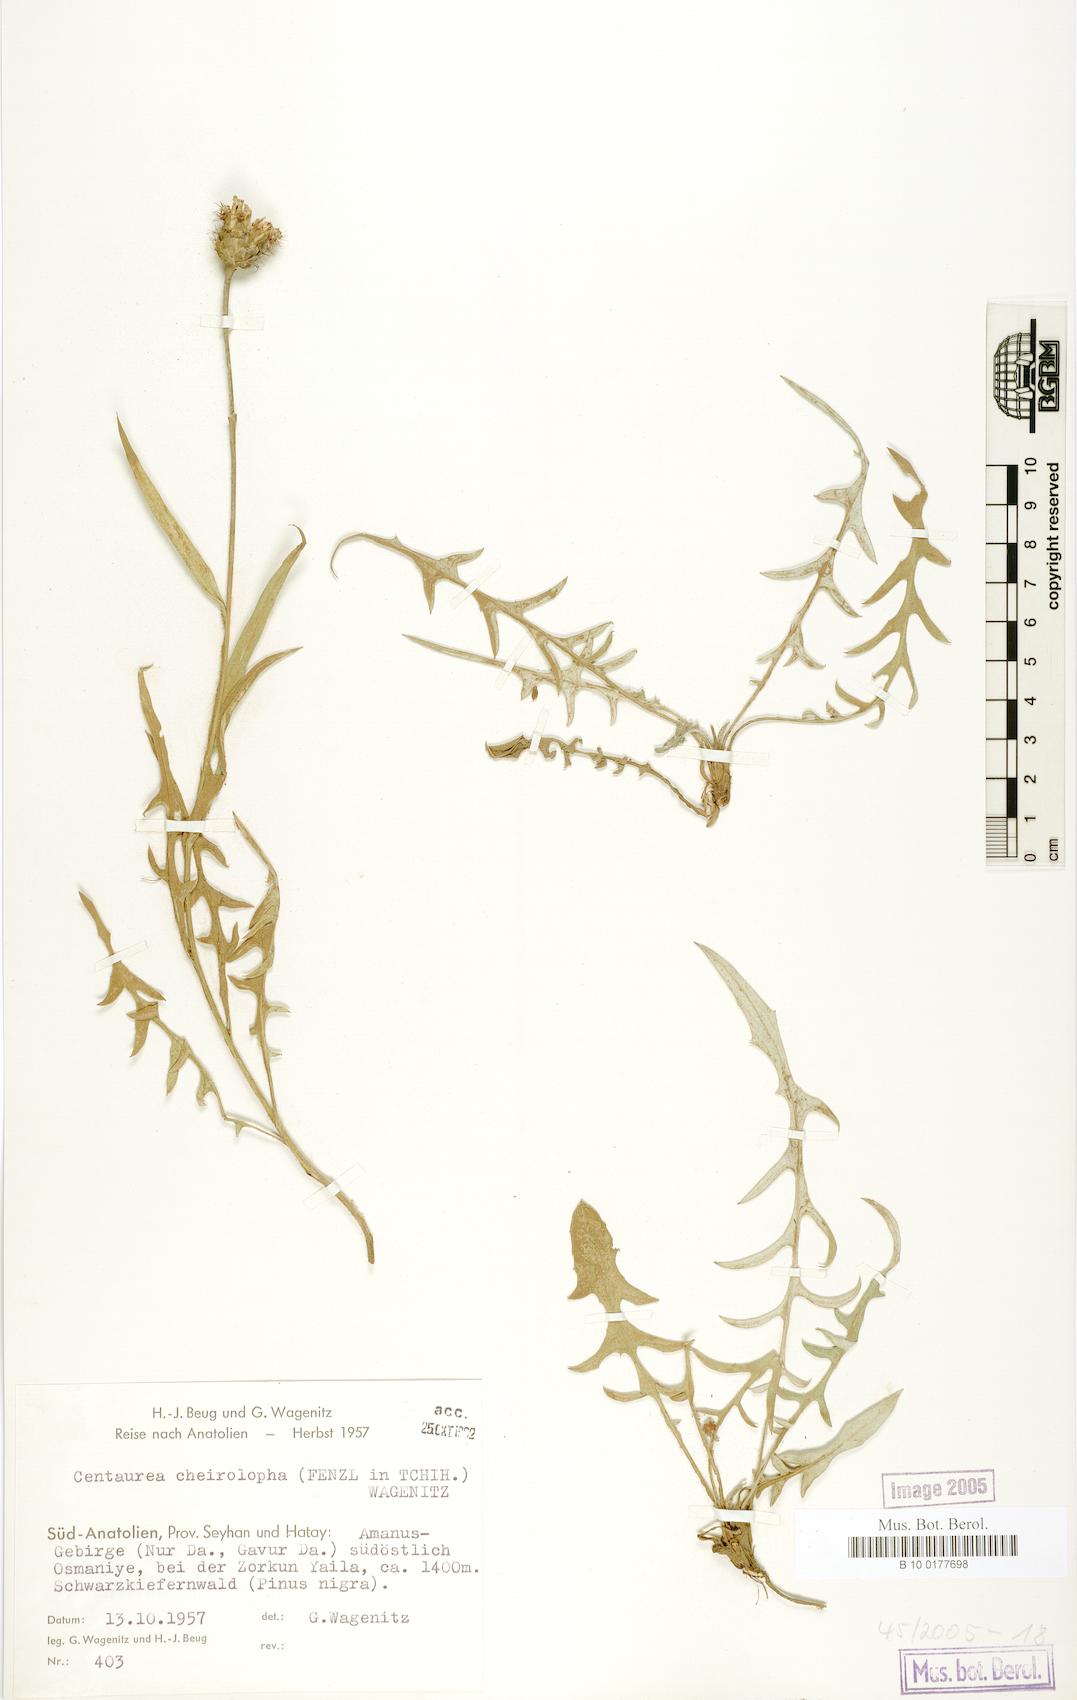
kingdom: Plantae
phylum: Tracheophyta
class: Magnoliopsida
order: Asterales
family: Asteraceae
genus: Centaurea
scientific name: Centaurea cheirolopha
